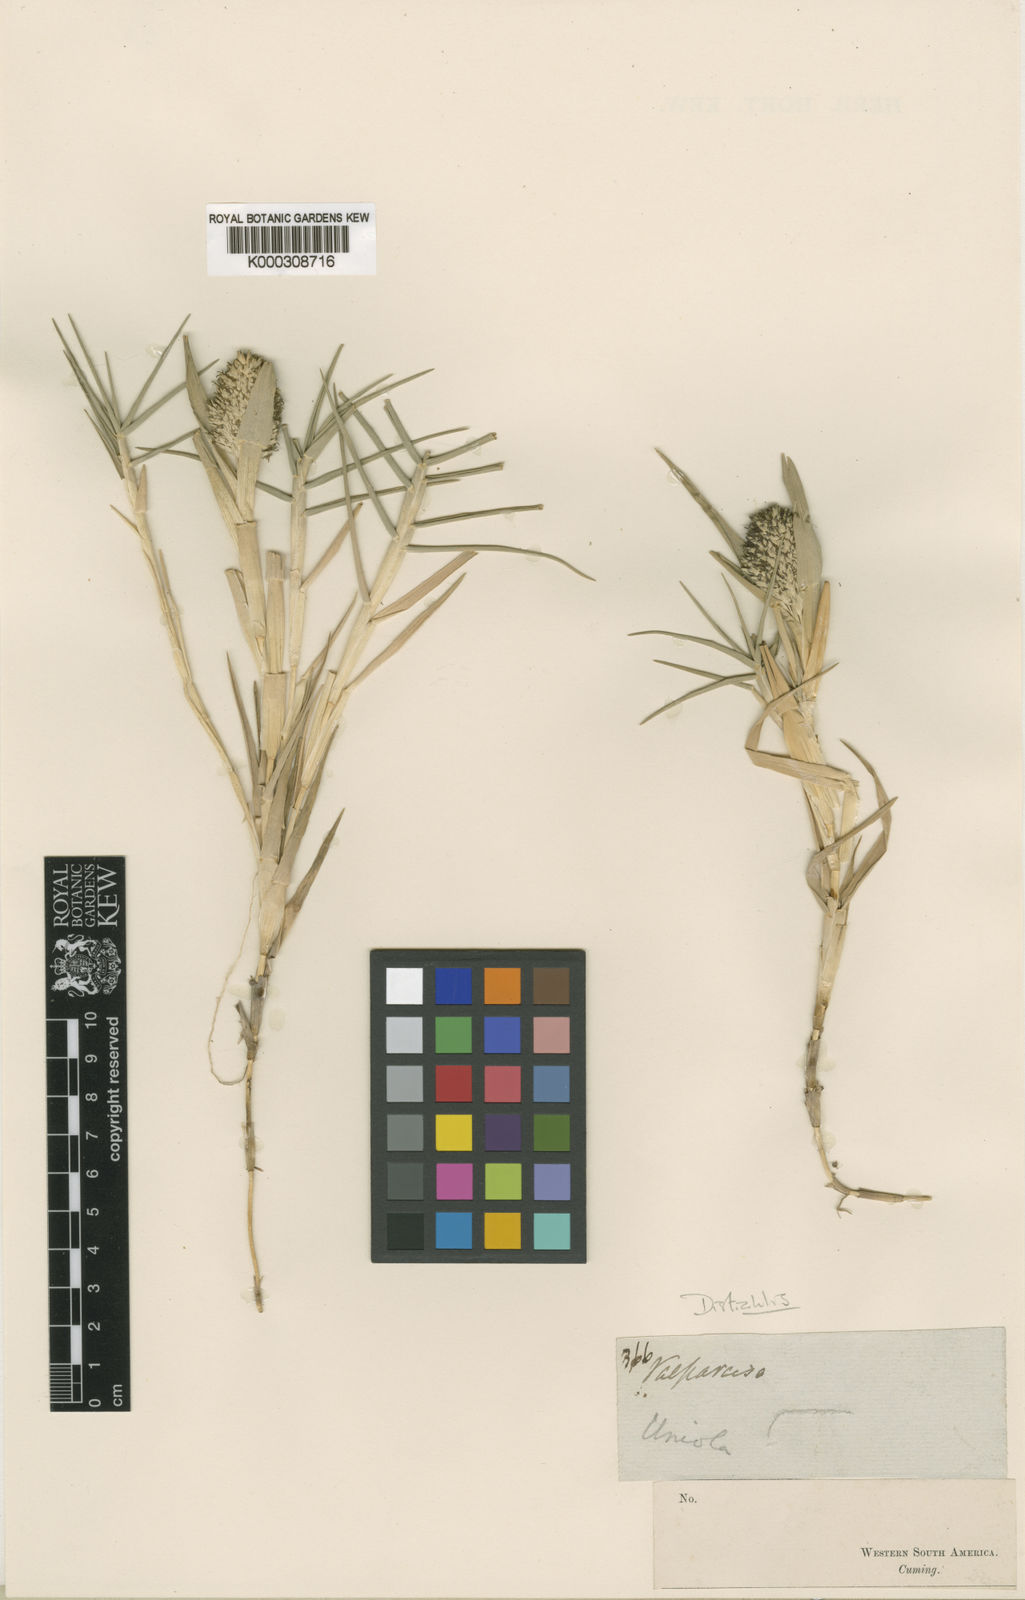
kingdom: Plantae
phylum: Tracheophyta
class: Liliopsida
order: Poales
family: Poaceae
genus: Distichlis
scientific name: Distichlis spicata
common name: Saltgrass
